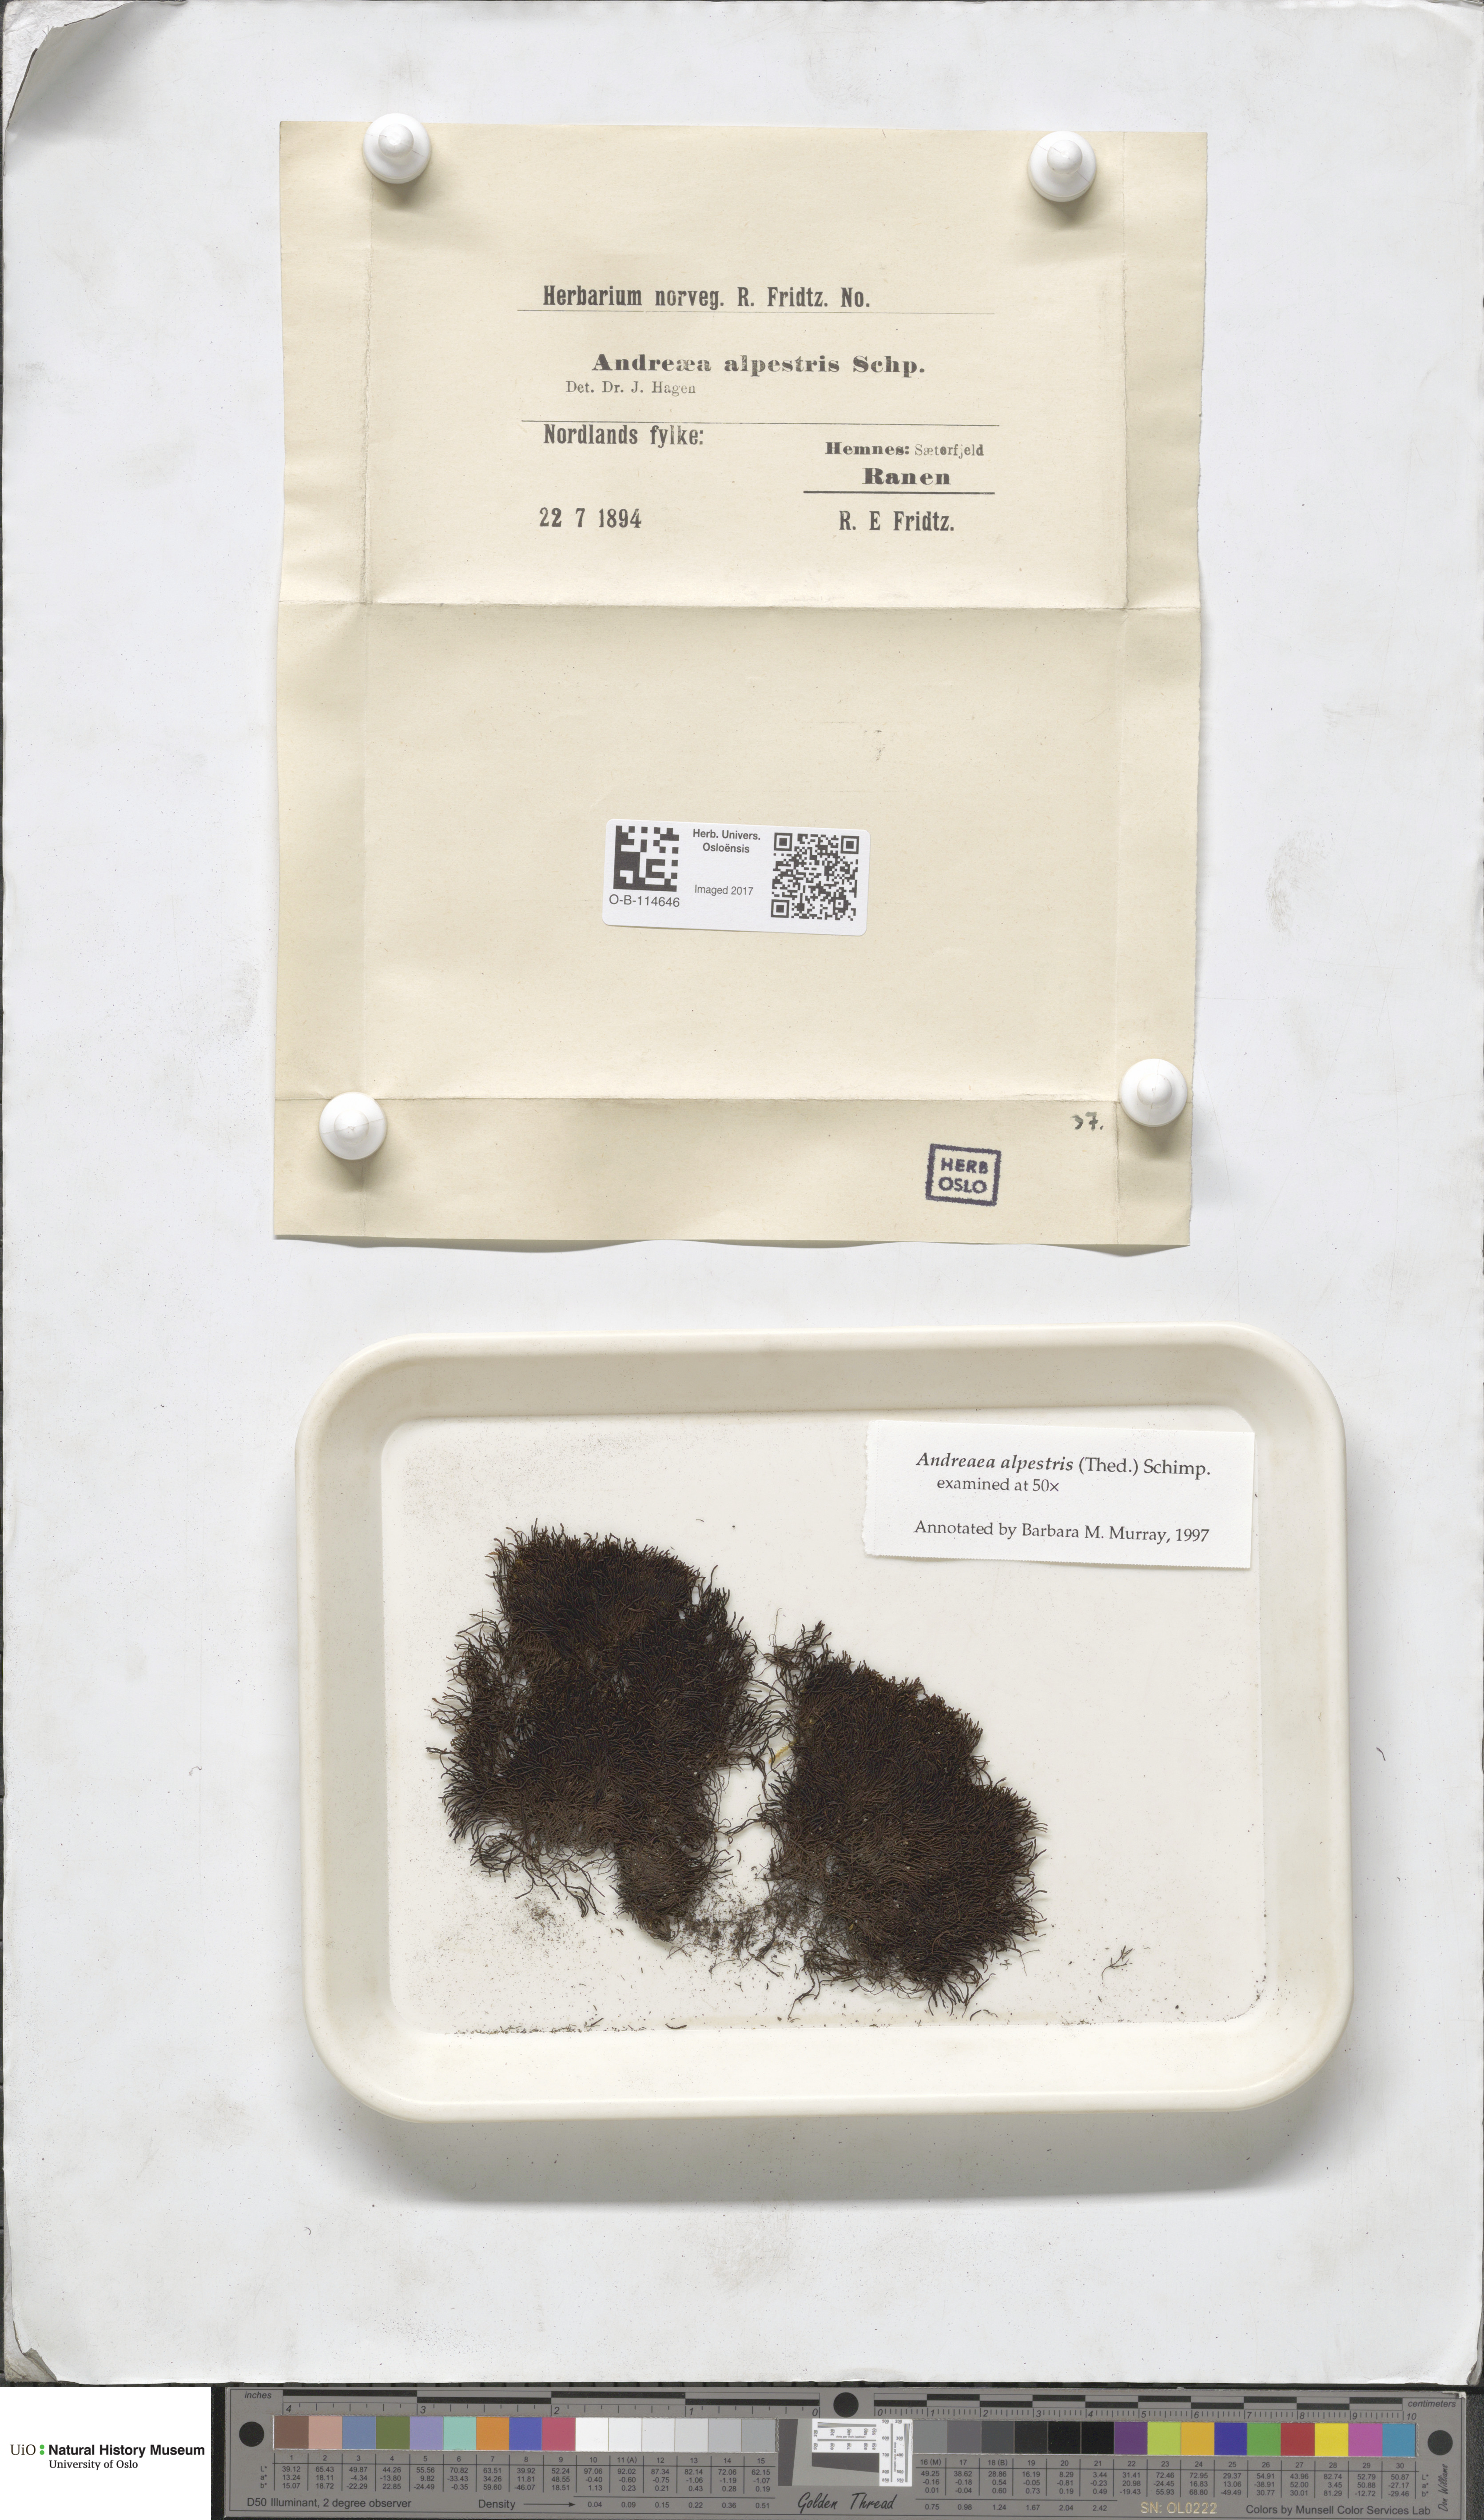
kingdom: Plantae
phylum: Bryophyta
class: Andreaeopsida
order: Andreaeales
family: Andreaeaceae
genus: Andreaea
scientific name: Andreaea alpestris
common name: Slender rock-moss
